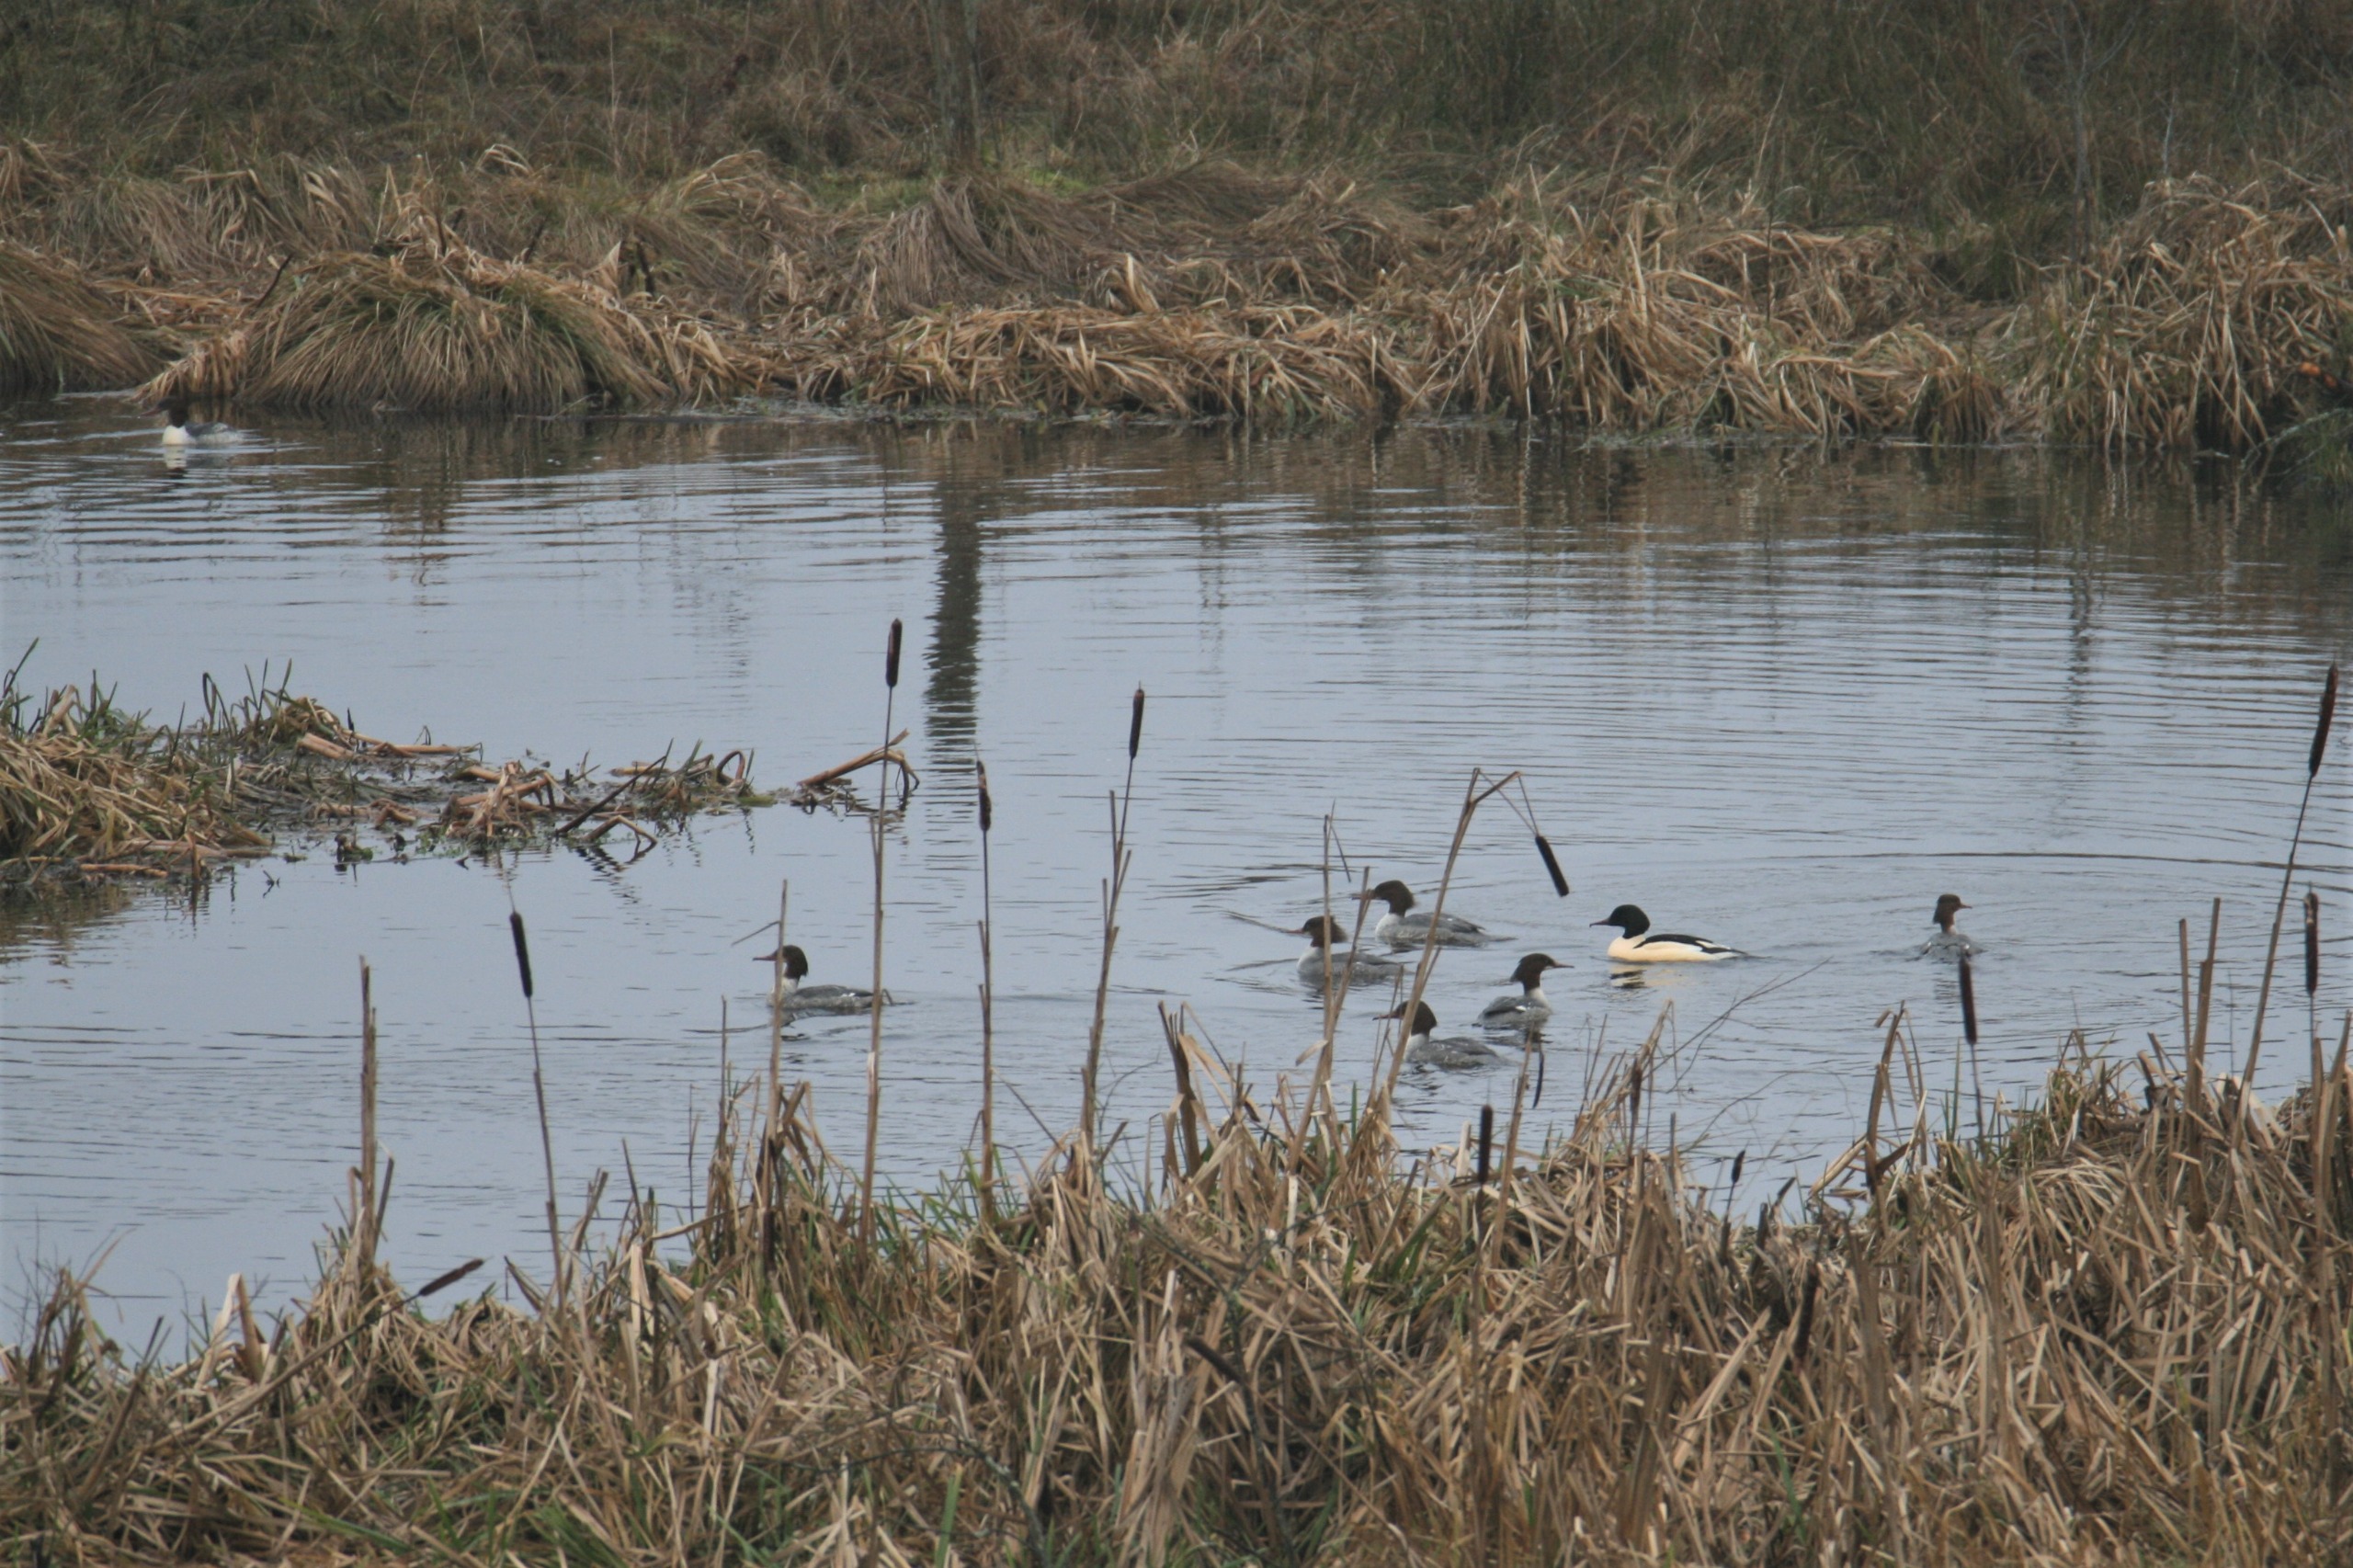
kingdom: Animalia
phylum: Chordata
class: Aves
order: Anseriformes
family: Anatidae
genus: Mergus
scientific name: Mergus merganser
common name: Stor skallesluger
